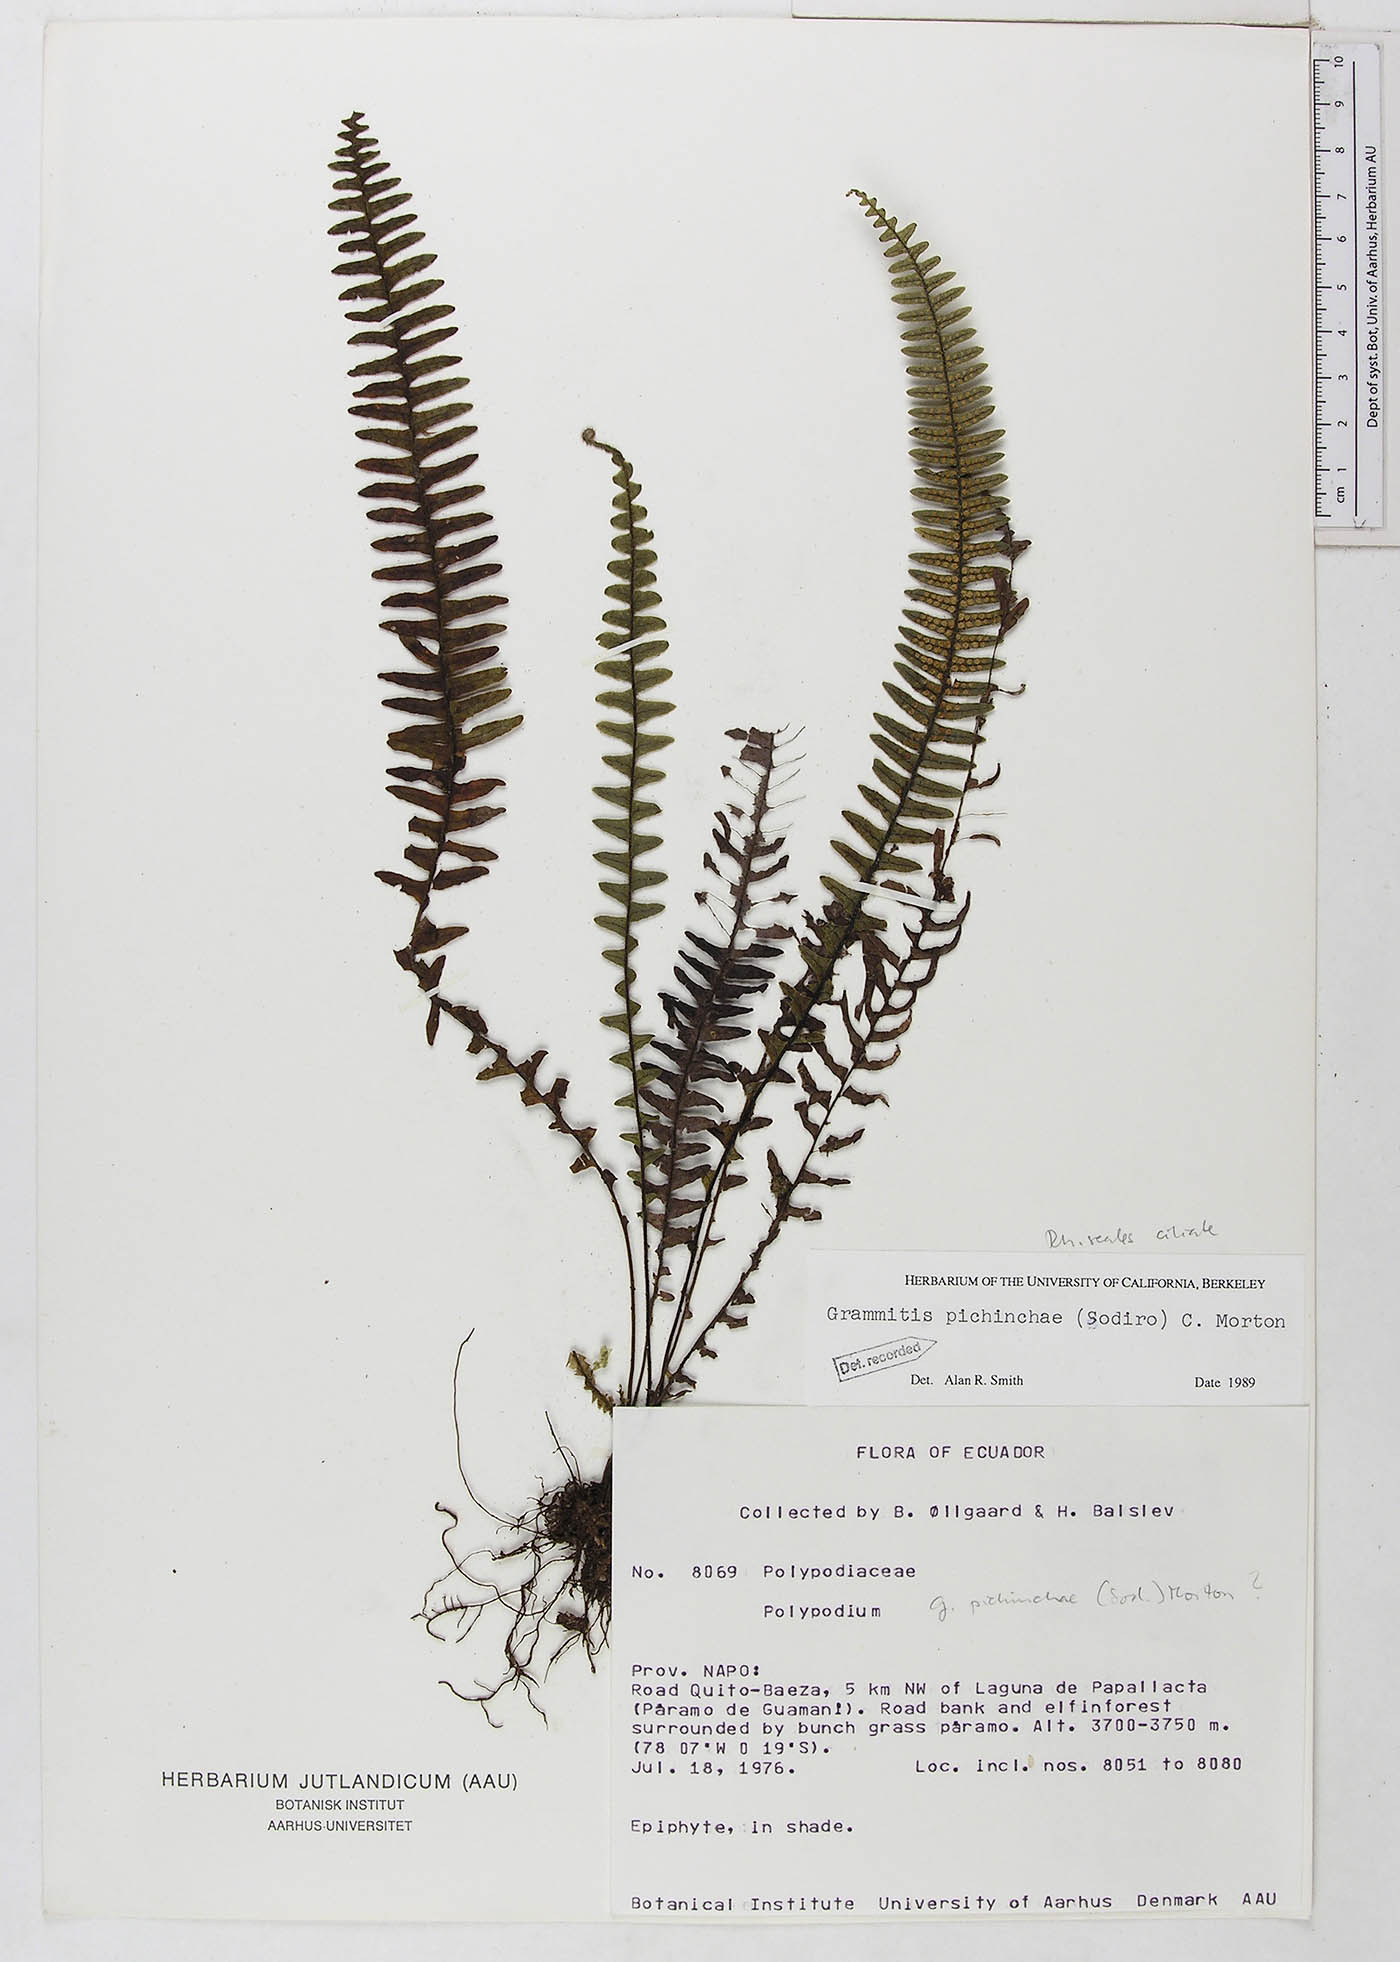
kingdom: Plantae
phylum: Tracheophyta
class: Polypodiopsida
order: Polypodiales
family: Polypodiaceae
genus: Ascogrammitis
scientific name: Ascogrammitis pichinchae
